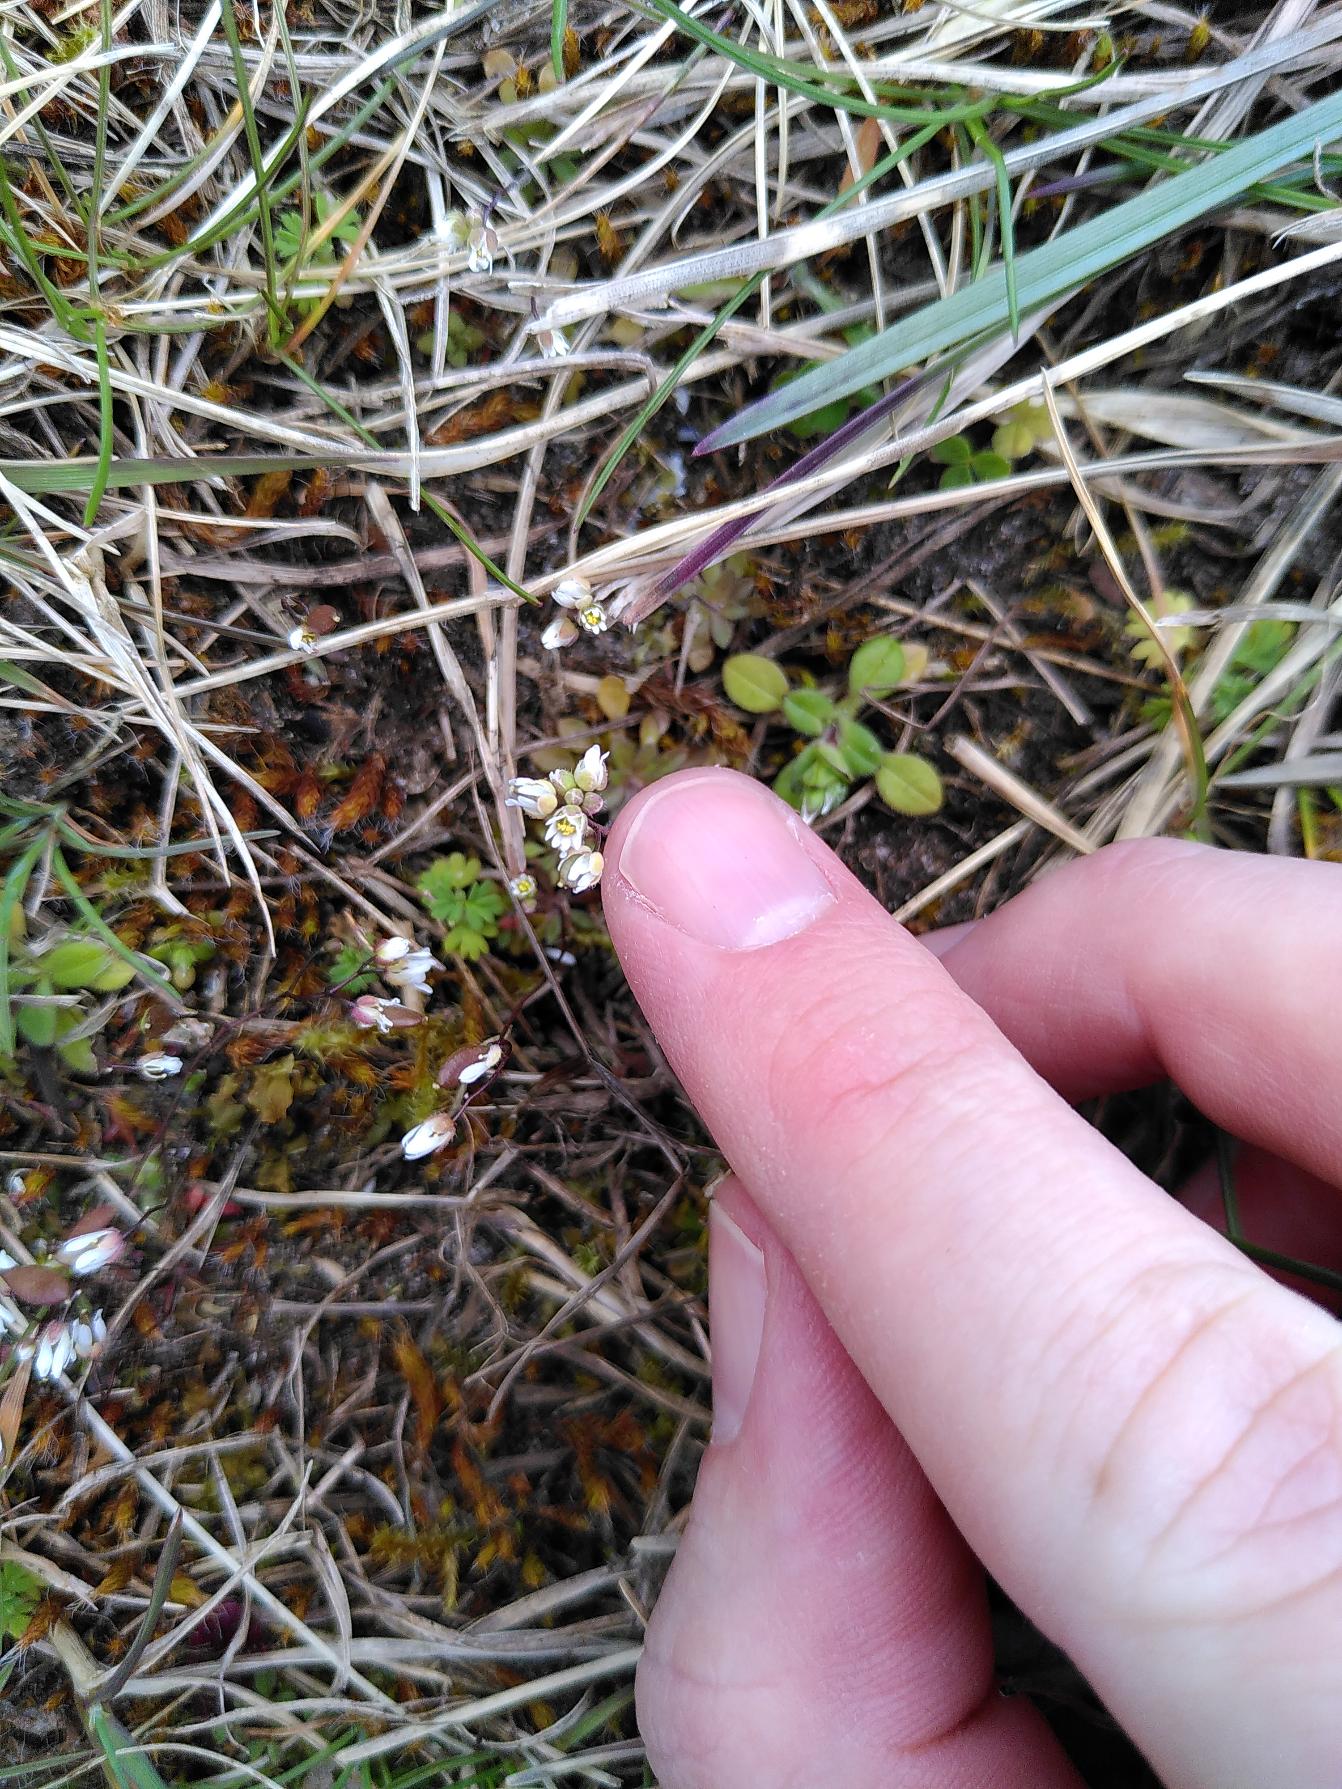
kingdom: Plantae
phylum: Tracheophyta
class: Magnoliopsida
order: Brassicales
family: Brassicaceae
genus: Draba
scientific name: Draba verna
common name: Vår-gæslingeblomst
